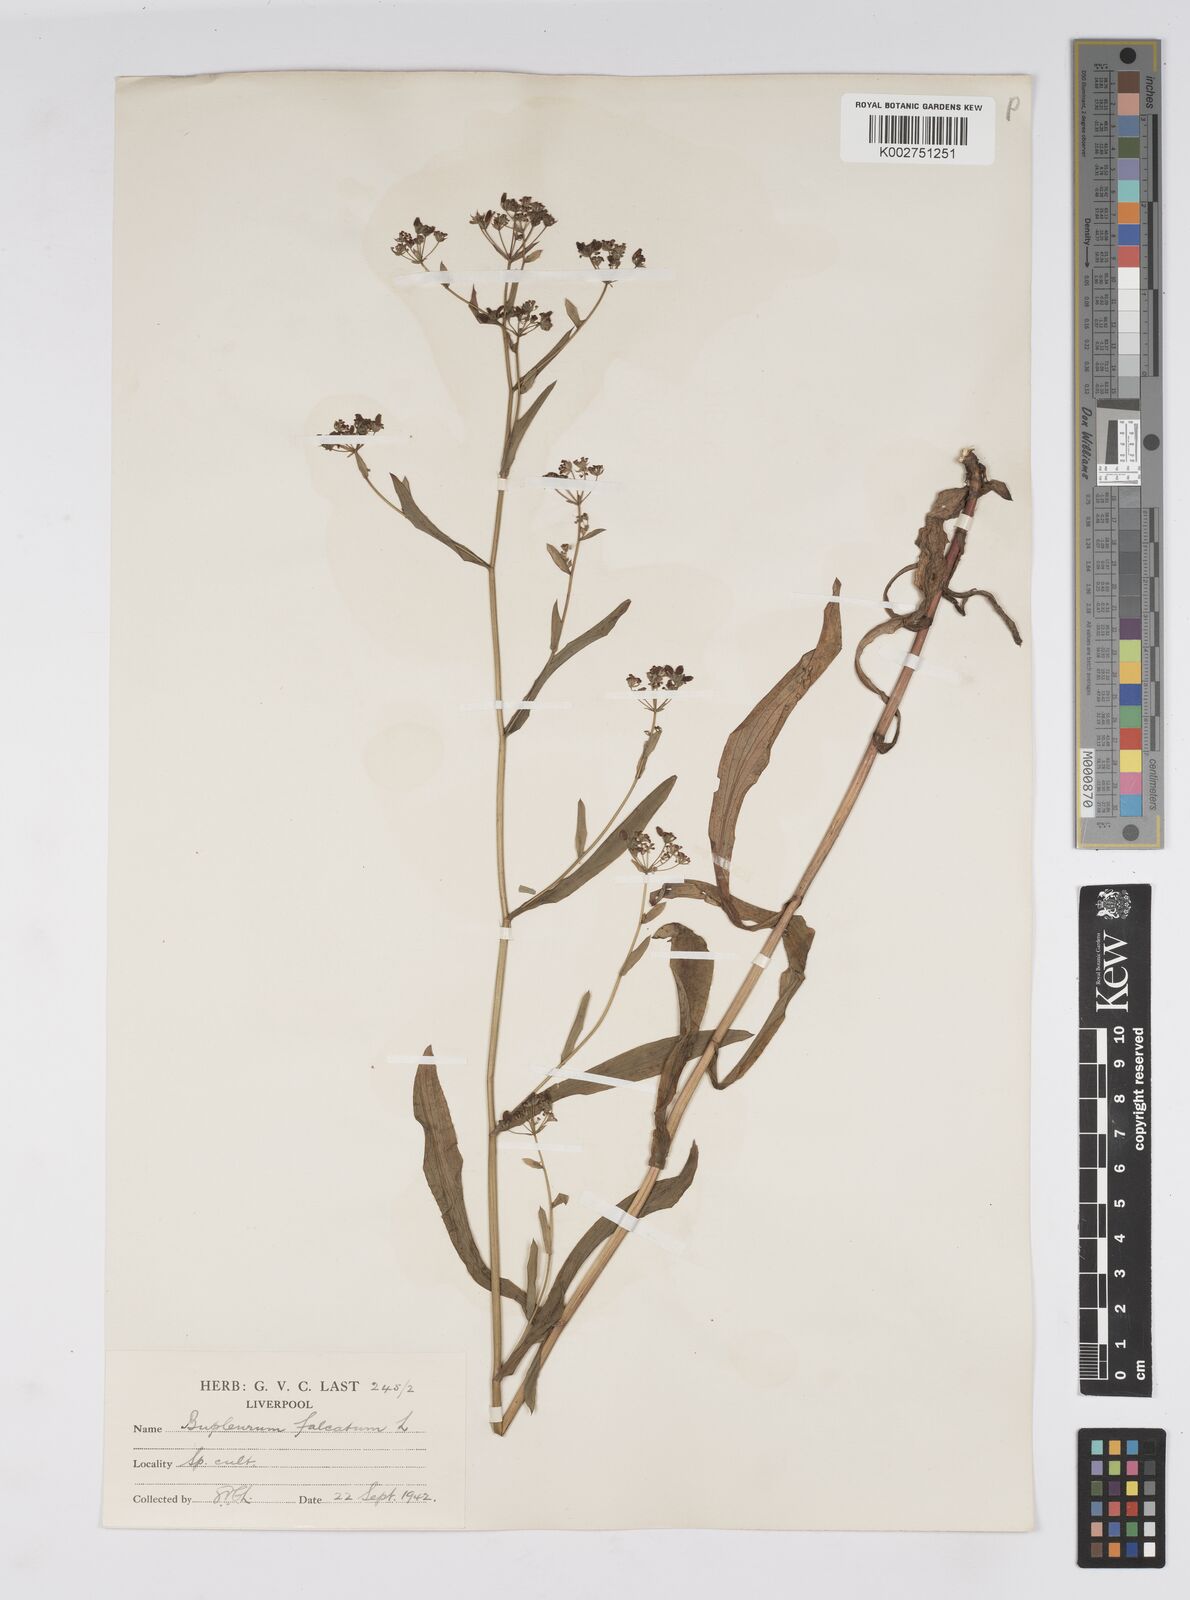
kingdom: Plantae
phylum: Tracheophyta
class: Magnoliopsida
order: Apiales
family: Apiaceae
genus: Bupleurum
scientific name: Bupleurum falcatum
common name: Sickle-leaved hare's-ear
